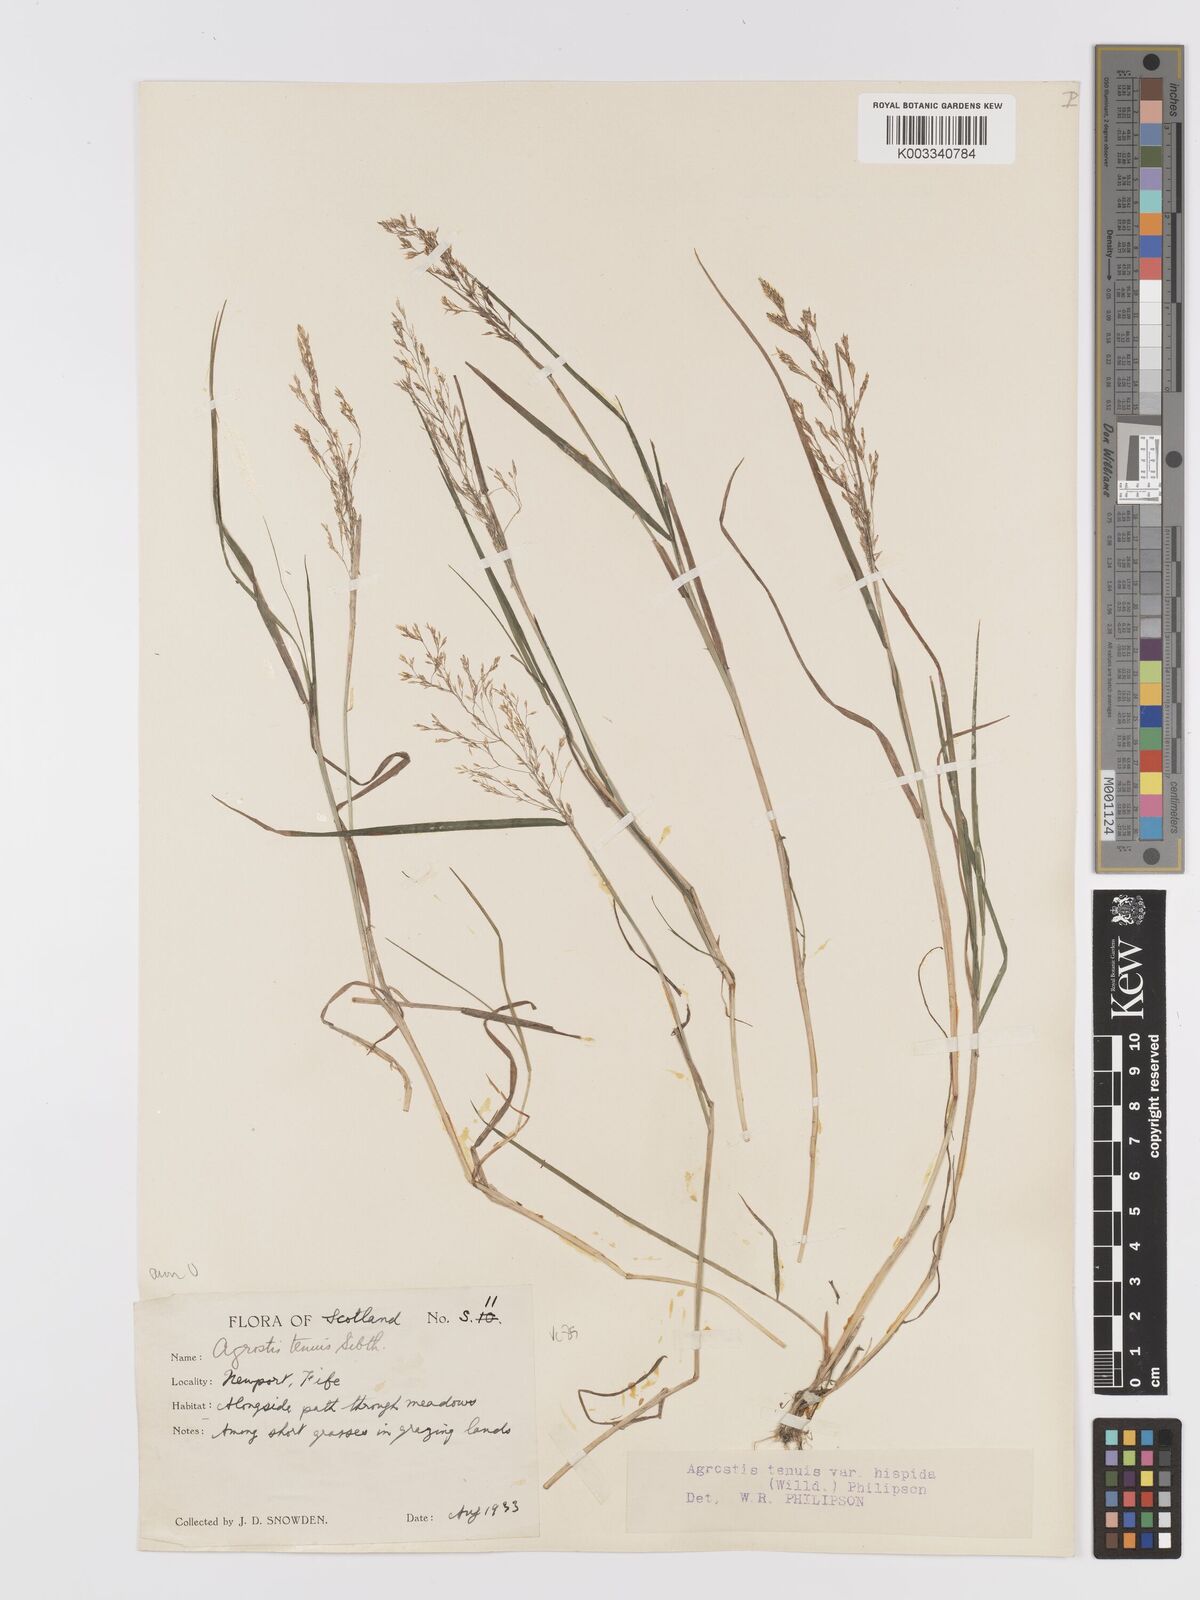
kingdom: Plantae
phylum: Tracheophyta
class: Liliopsida
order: Poales
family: Poaceae
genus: Agrostis
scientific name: Agrostis capillaris
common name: Colonial bentgrass
